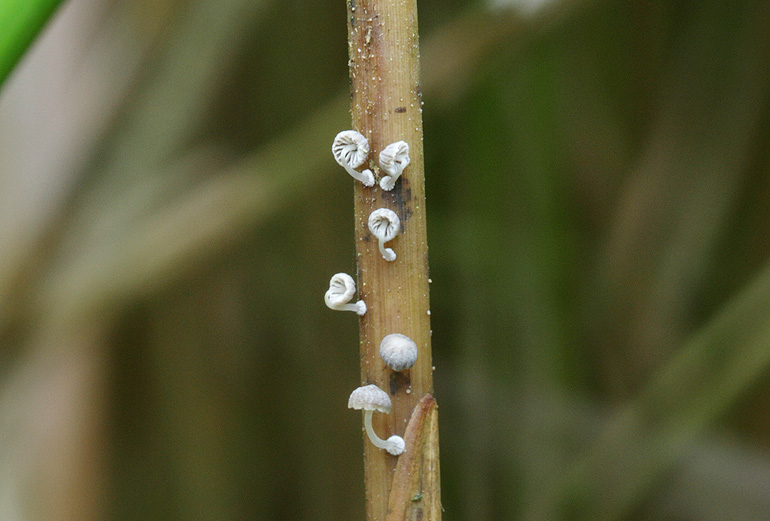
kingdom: Fungi
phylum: Basidiomycota
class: Agaricomycetes
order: Agaricales
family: Mycenaceae
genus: Mycena
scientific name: Mycena bulbosa
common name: siv-huesvamp
